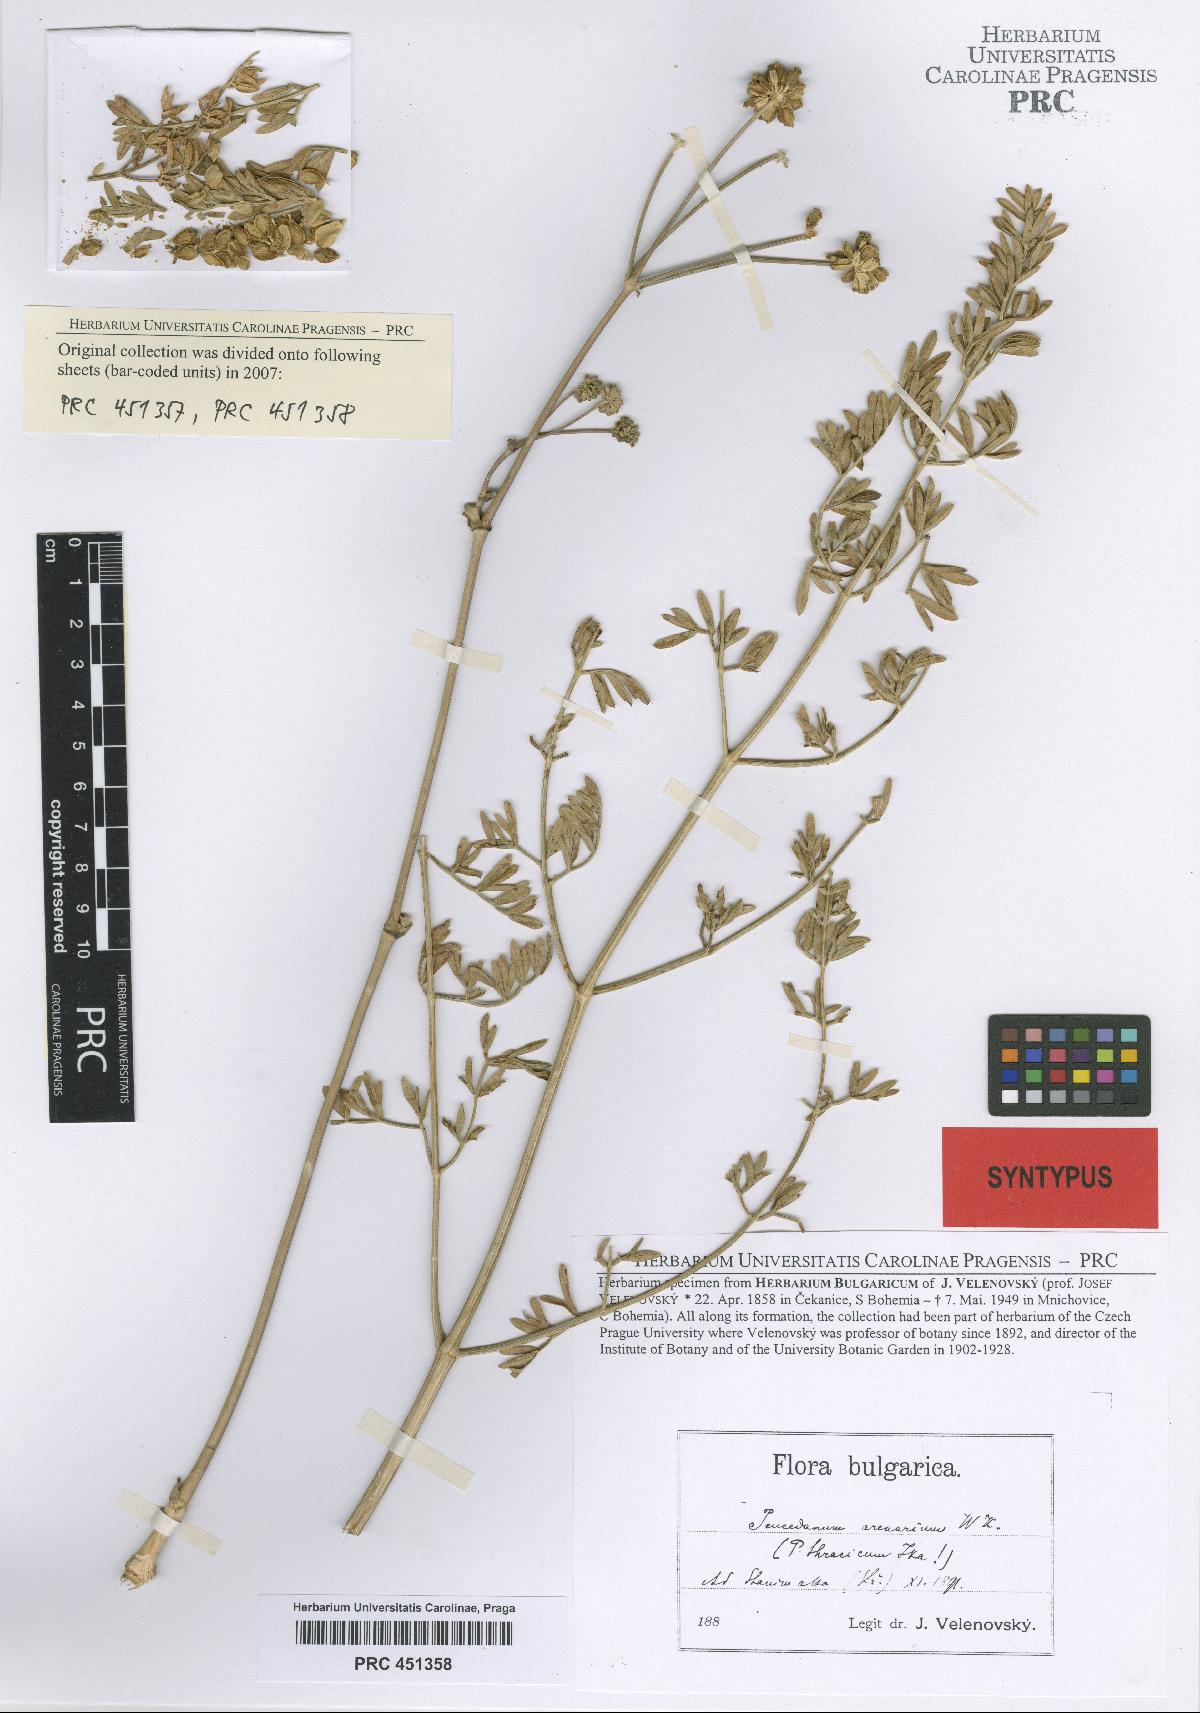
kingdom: Plantae
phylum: Tracheophyta
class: Magnoliopsida
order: Apiales
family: Apiaceae
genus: Dichoropetalum
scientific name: Dichoropetalum vittijugum
